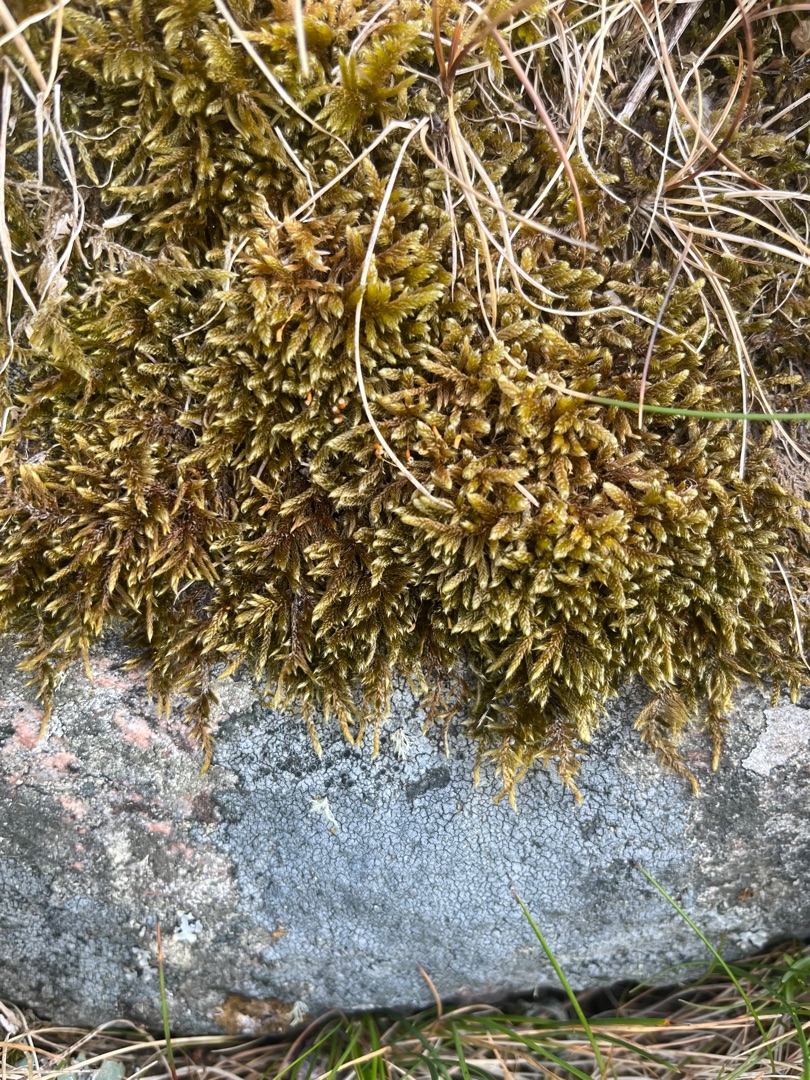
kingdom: Plantae
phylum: Bryophyta
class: Bryopsida
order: Hypnales
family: Hypnaceae
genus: Hypnum
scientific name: Hypnum cupressiforme
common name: Almindelig cypresmos
